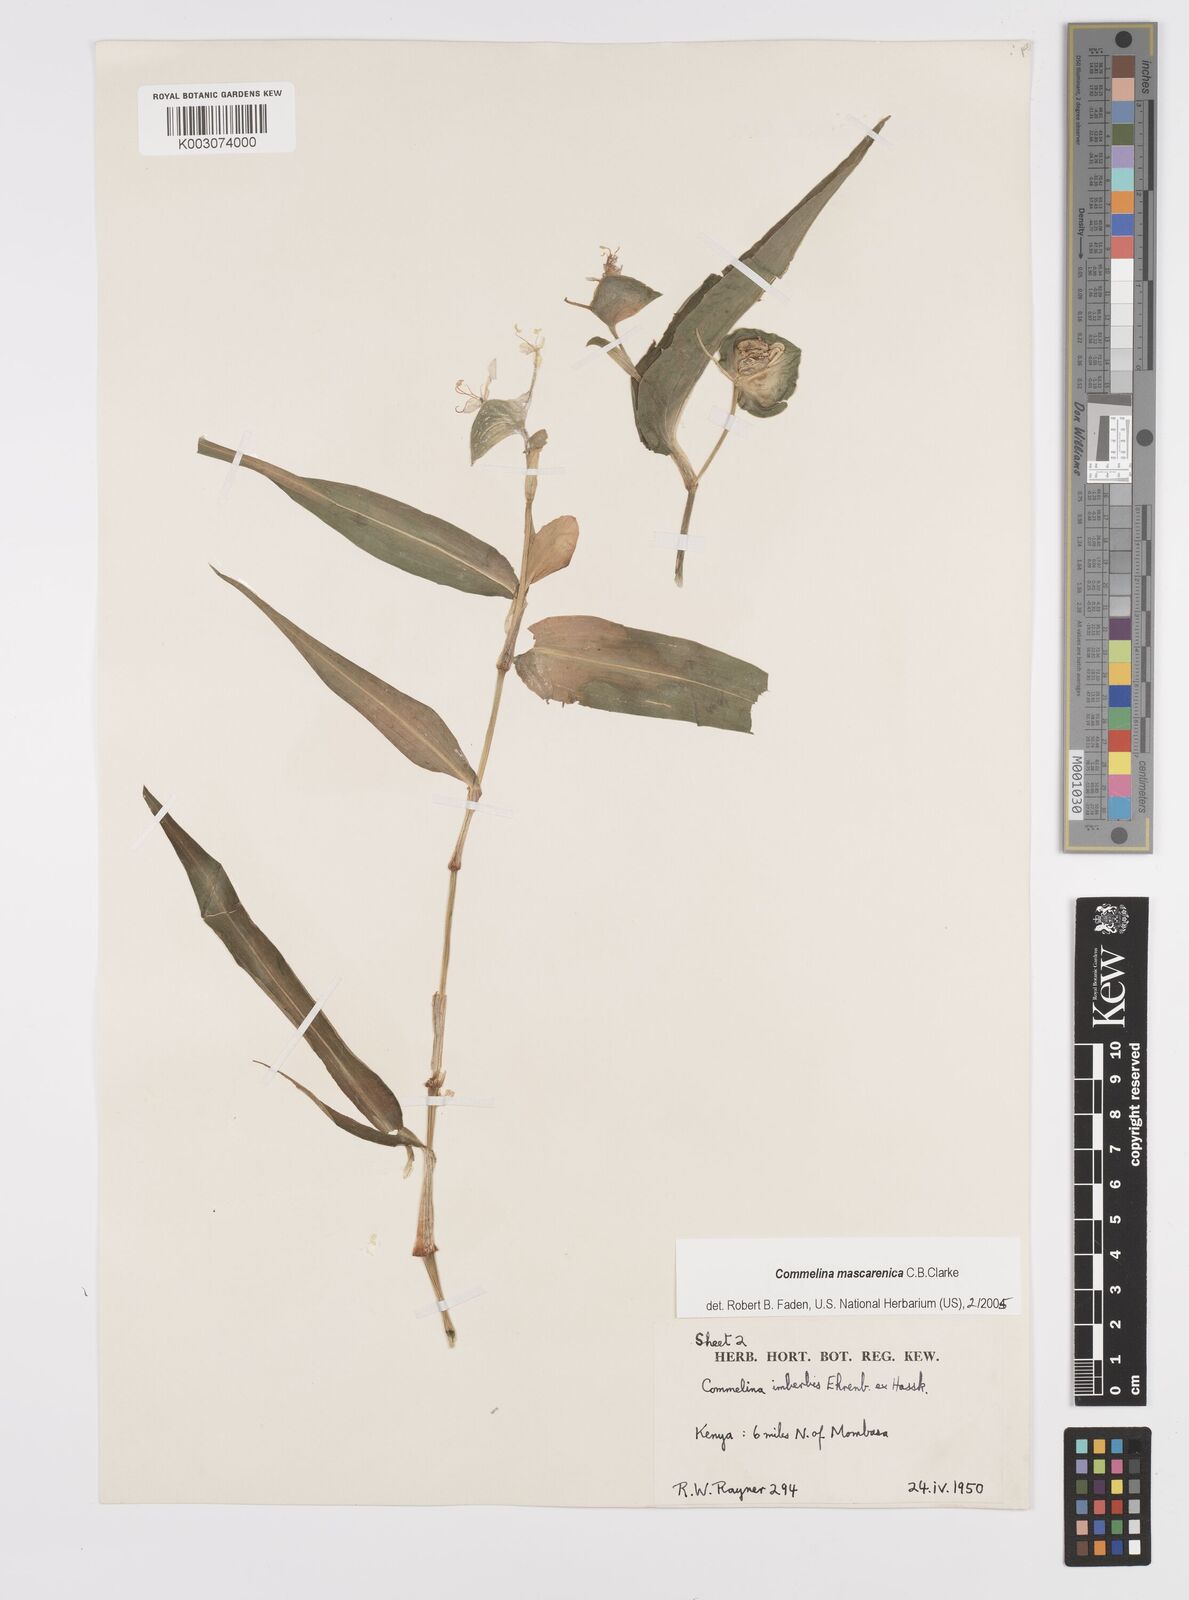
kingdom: Plantae
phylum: Tracheophyta
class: Liliopsida
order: Commelinales
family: Commelinaceae
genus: Commelina
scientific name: Commelina mascarenica
